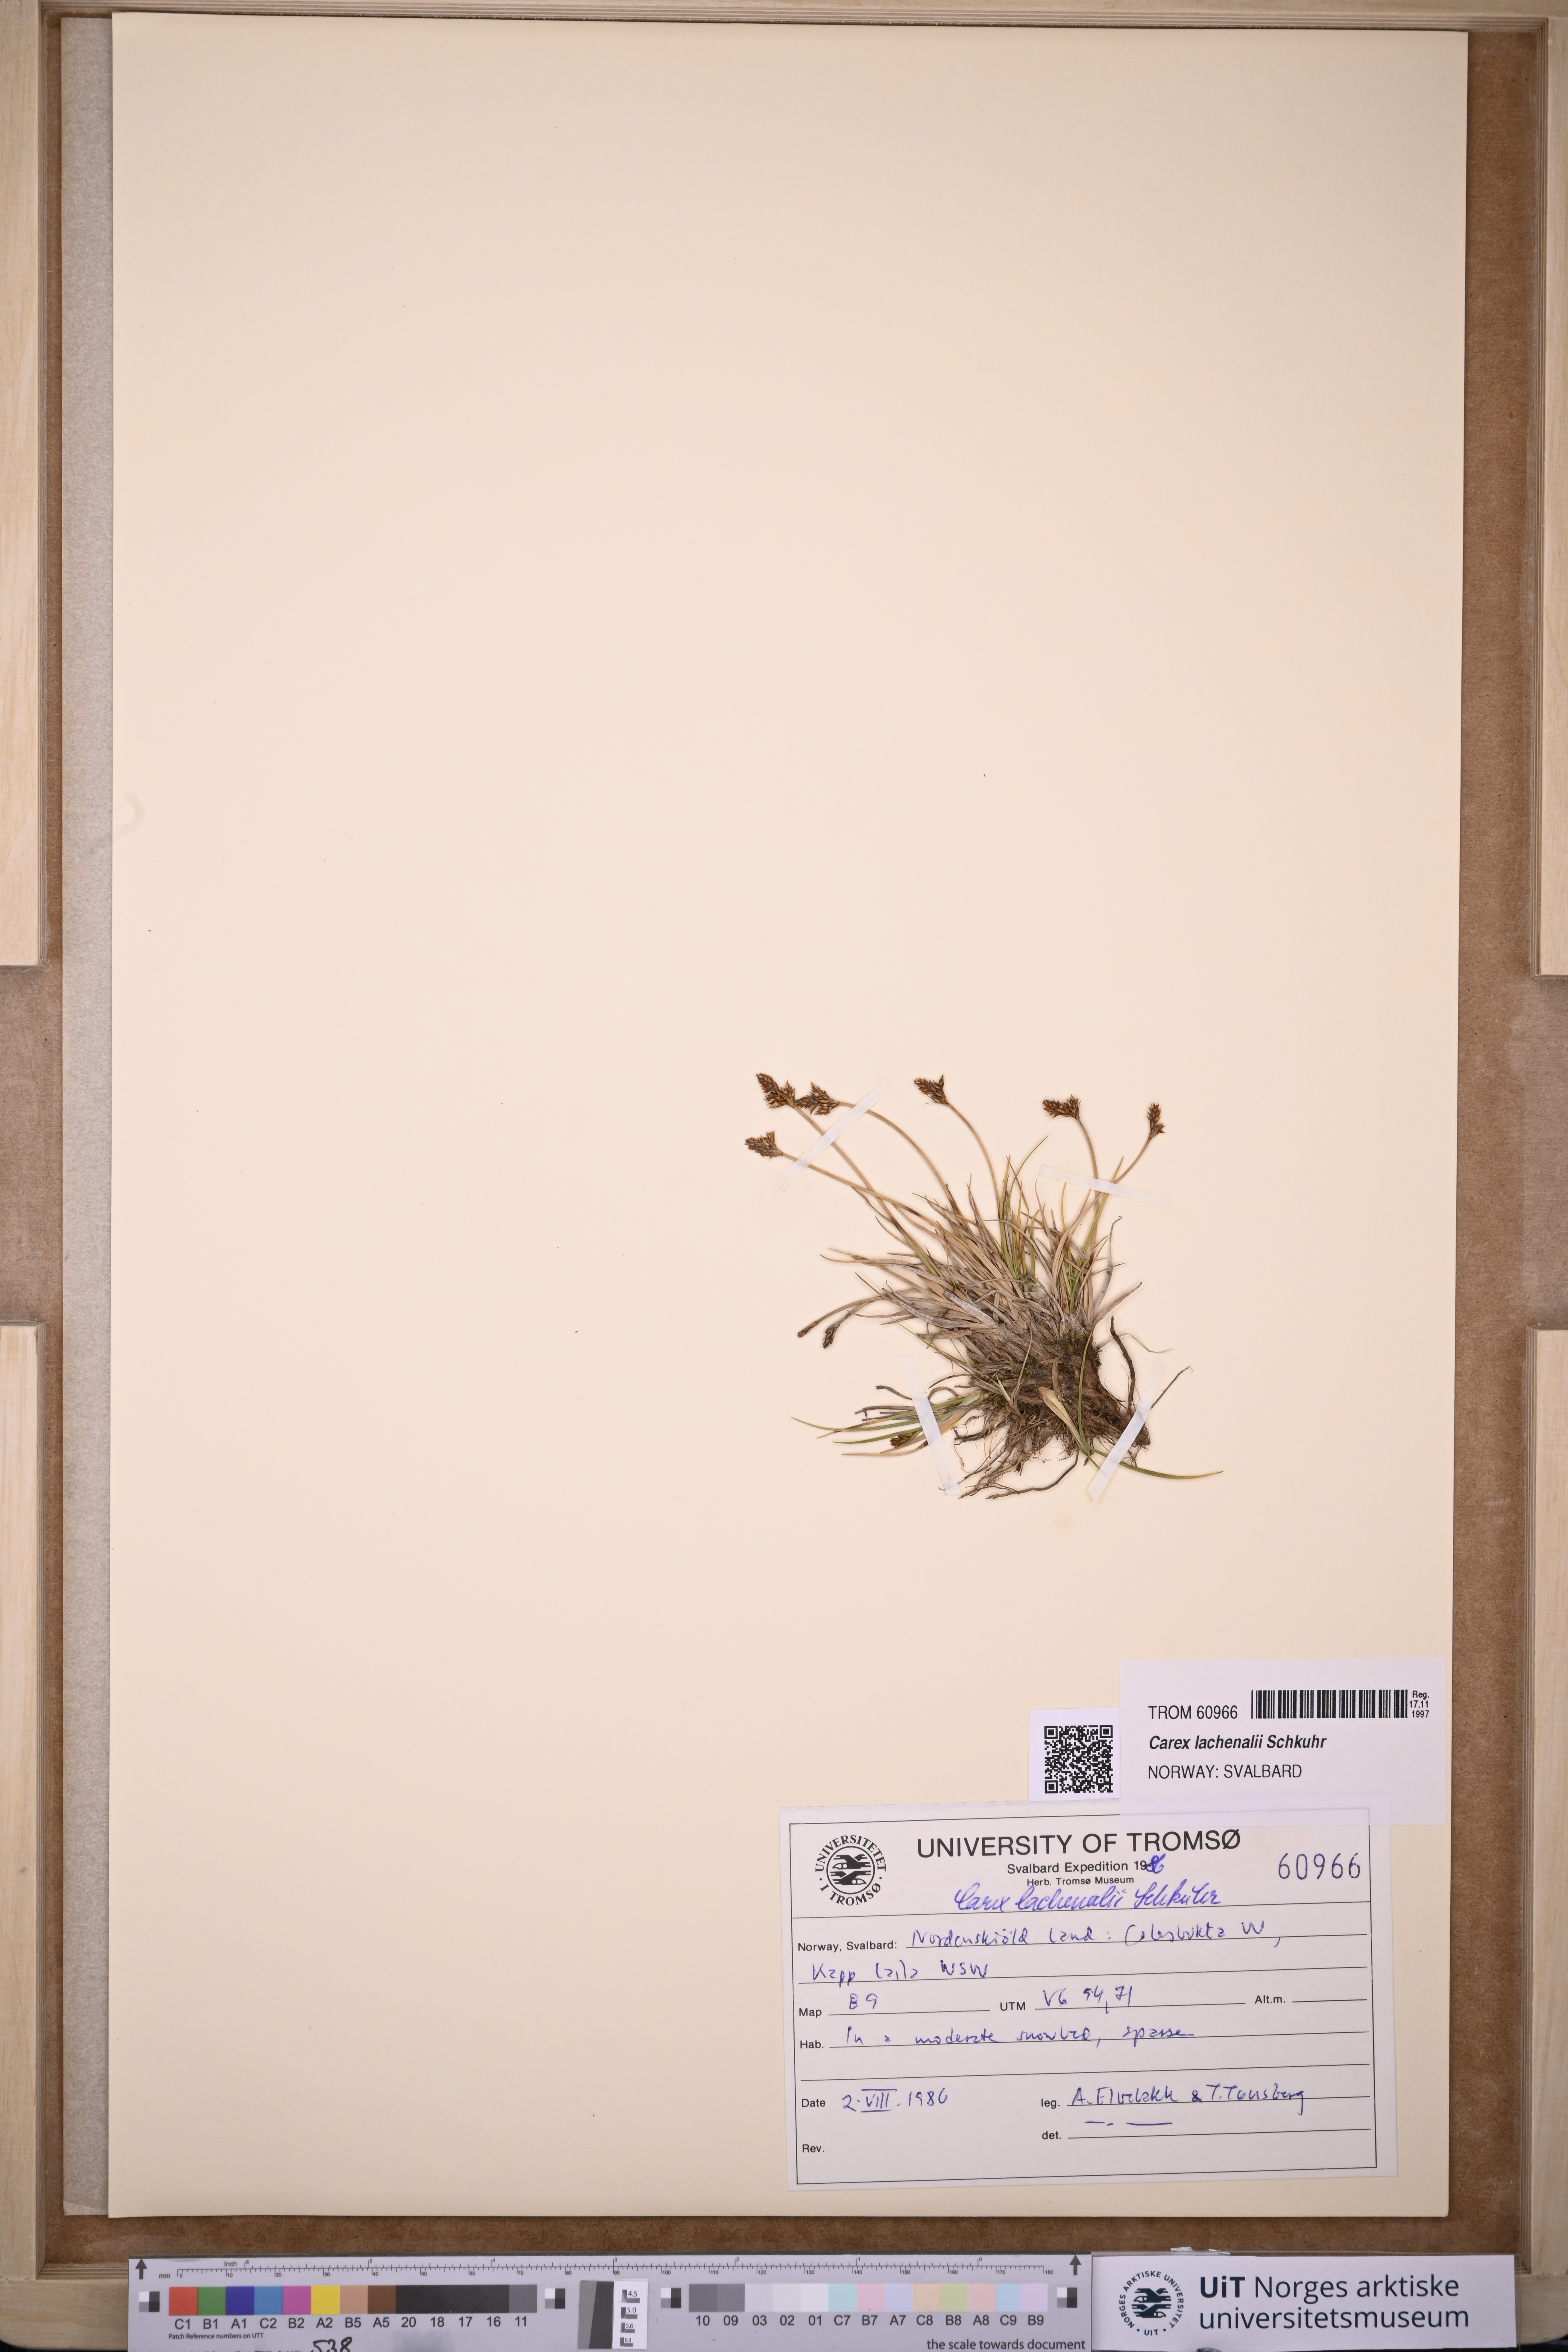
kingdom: Plantae
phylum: Tracheophyta
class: Liliopsida
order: Poales
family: Cyperaceae
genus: Carex
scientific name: Carex lachenalii
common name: Hare's-foot sedge
